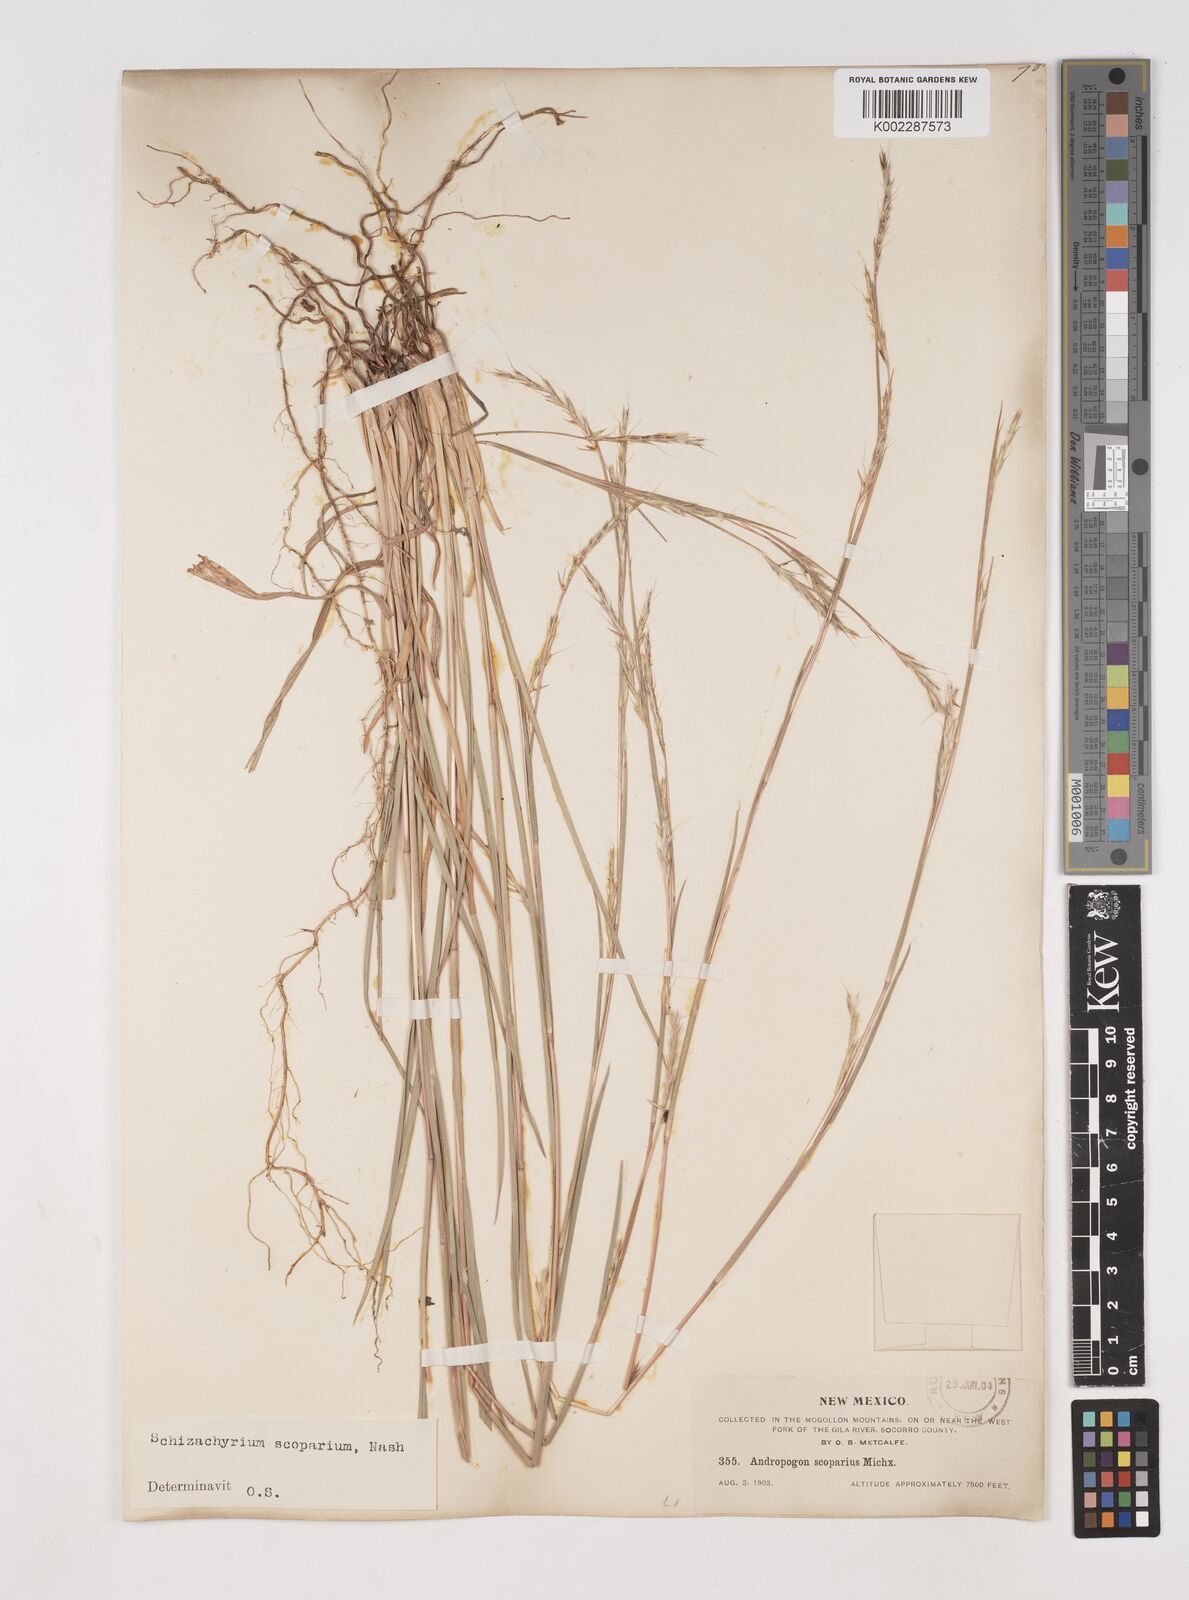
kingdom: Plantae
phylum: Tracheophyta
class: Liliopsida
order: Poales
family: Poaceae
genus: Schizachyrium
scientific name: Schizachyrium scoparium
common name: Little bluestem
